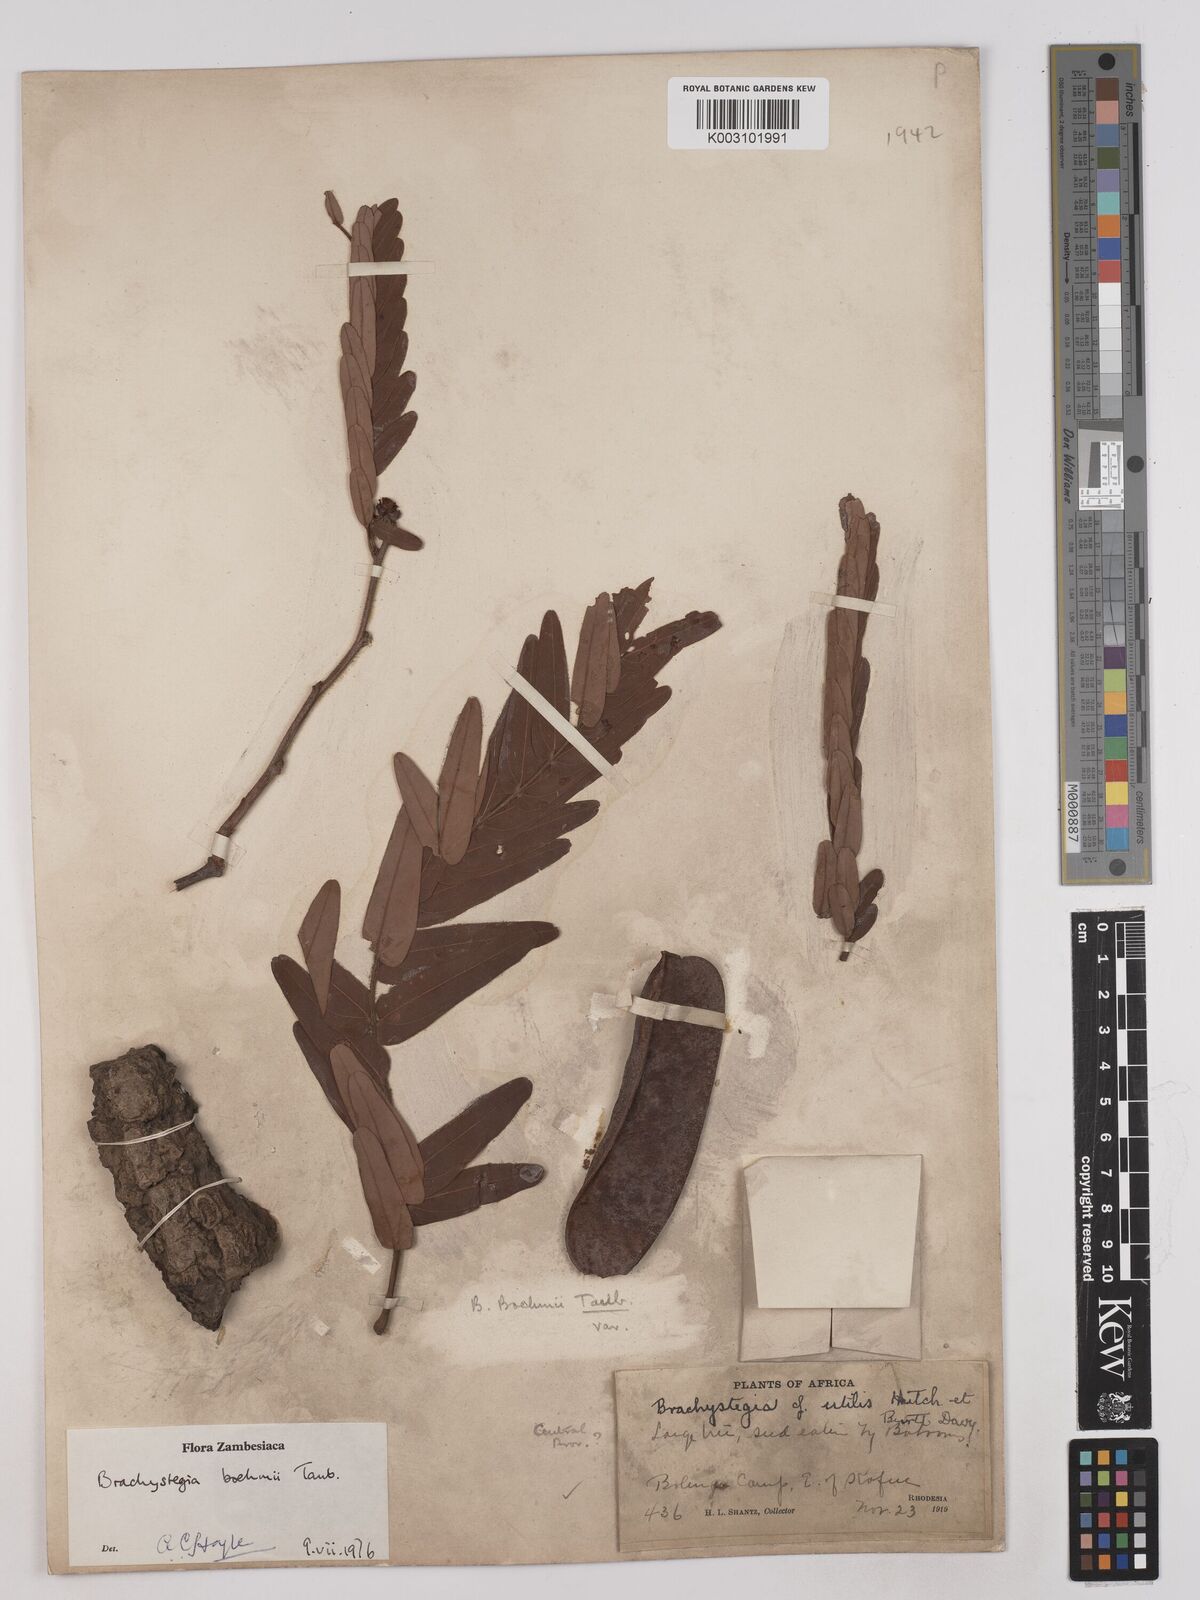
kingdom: Plantae
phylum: Tracheophyta
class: Magnoliopsida
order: Fabales
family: Fabaceae
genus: Brachystegia
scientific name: Brachystegia boehmii
